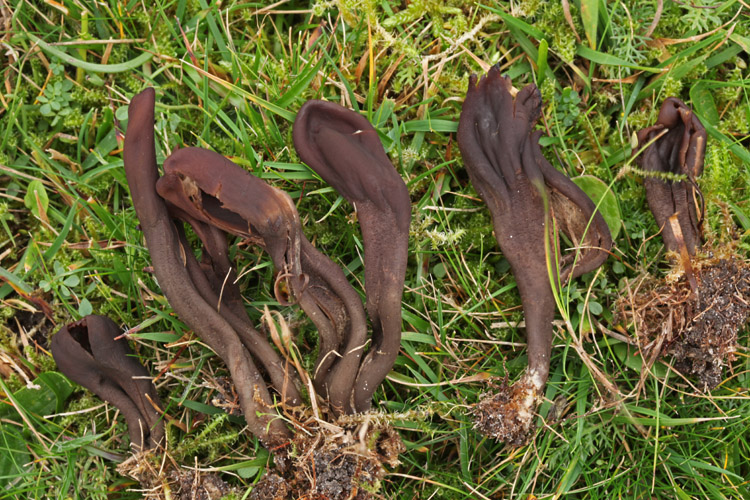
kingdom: Fungi
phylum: Ascomycota
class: Geoglossomycetes
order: Geoglossales
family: Geoglossaceae
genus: Geoglossum
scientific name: Geoglossum atropurpureum
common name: purpursort farvetunge
